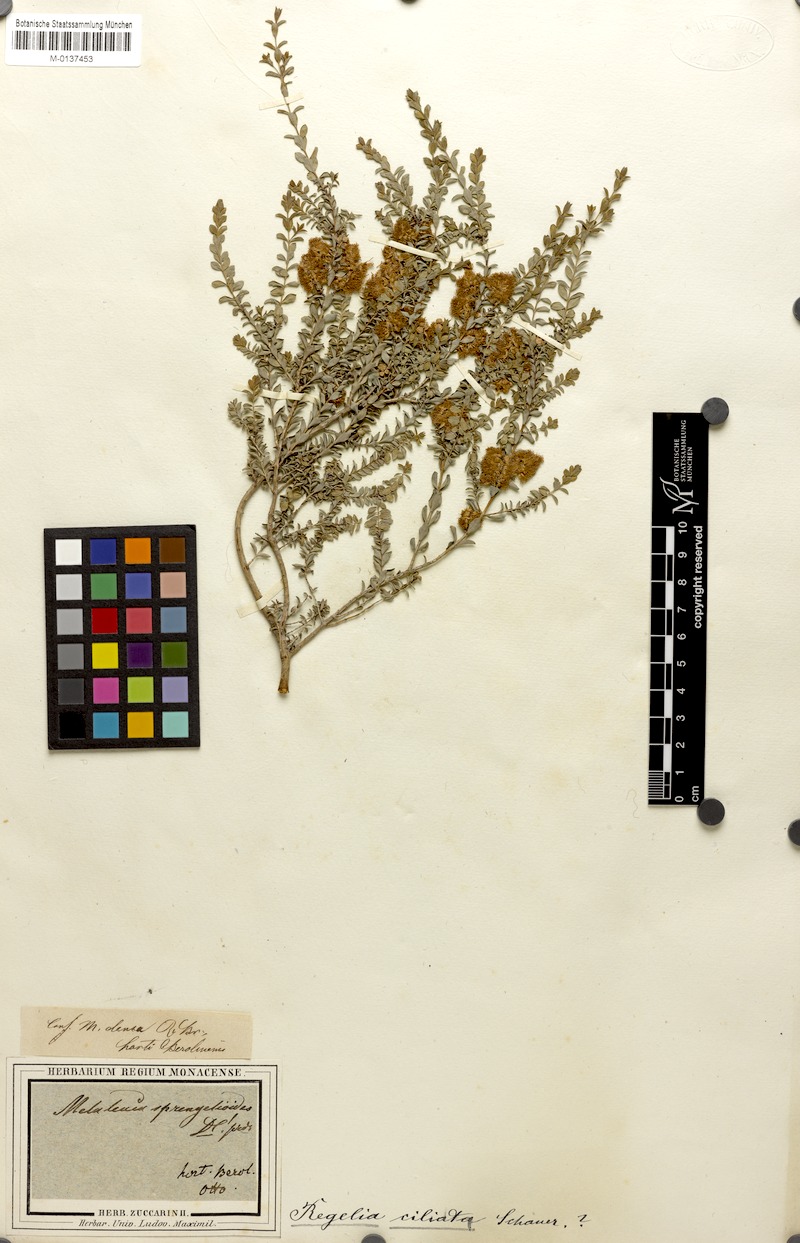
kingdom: Plantae
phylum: Tracheophyta
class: Magnoliopsida
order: Myrtales
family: Myrtaceae
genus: Melaleuca
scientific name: Melaleuca crossota
